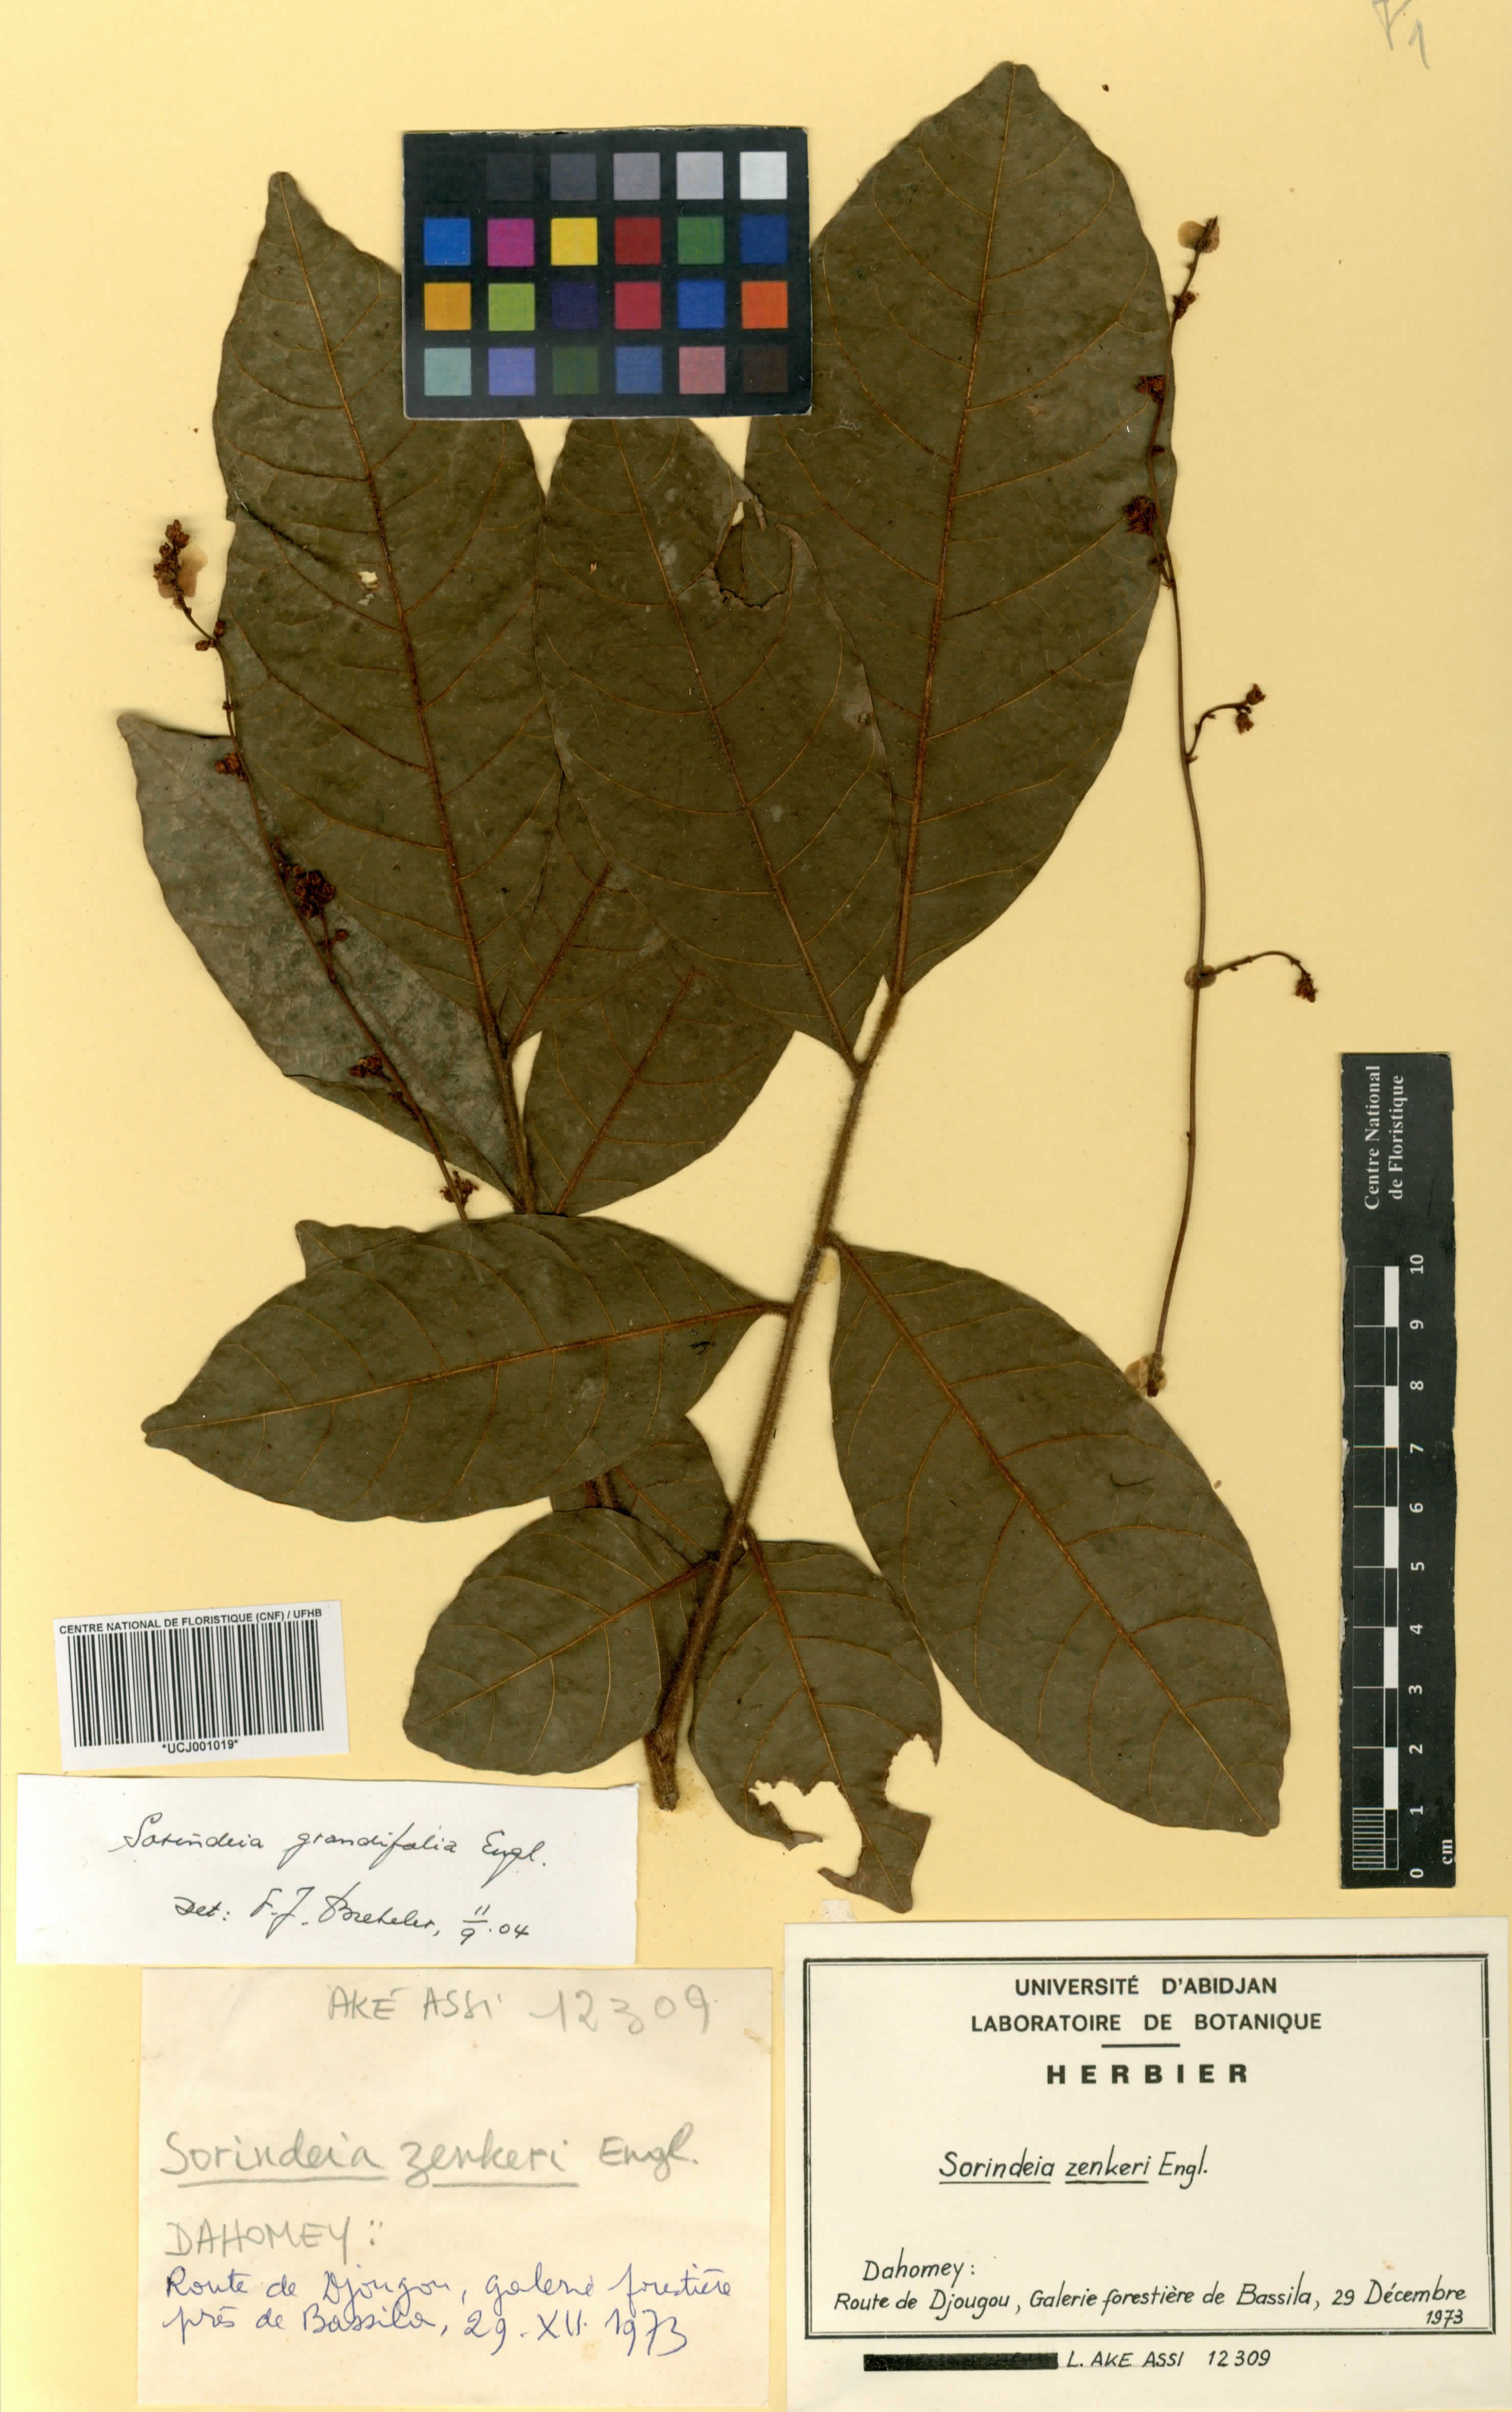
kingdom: Plantae
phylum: Tracheophyta
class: Magnoliopsida
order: Sapindales
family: Anacardiaceae
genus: Sorindeia
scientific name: Sorindeia grandifolia
